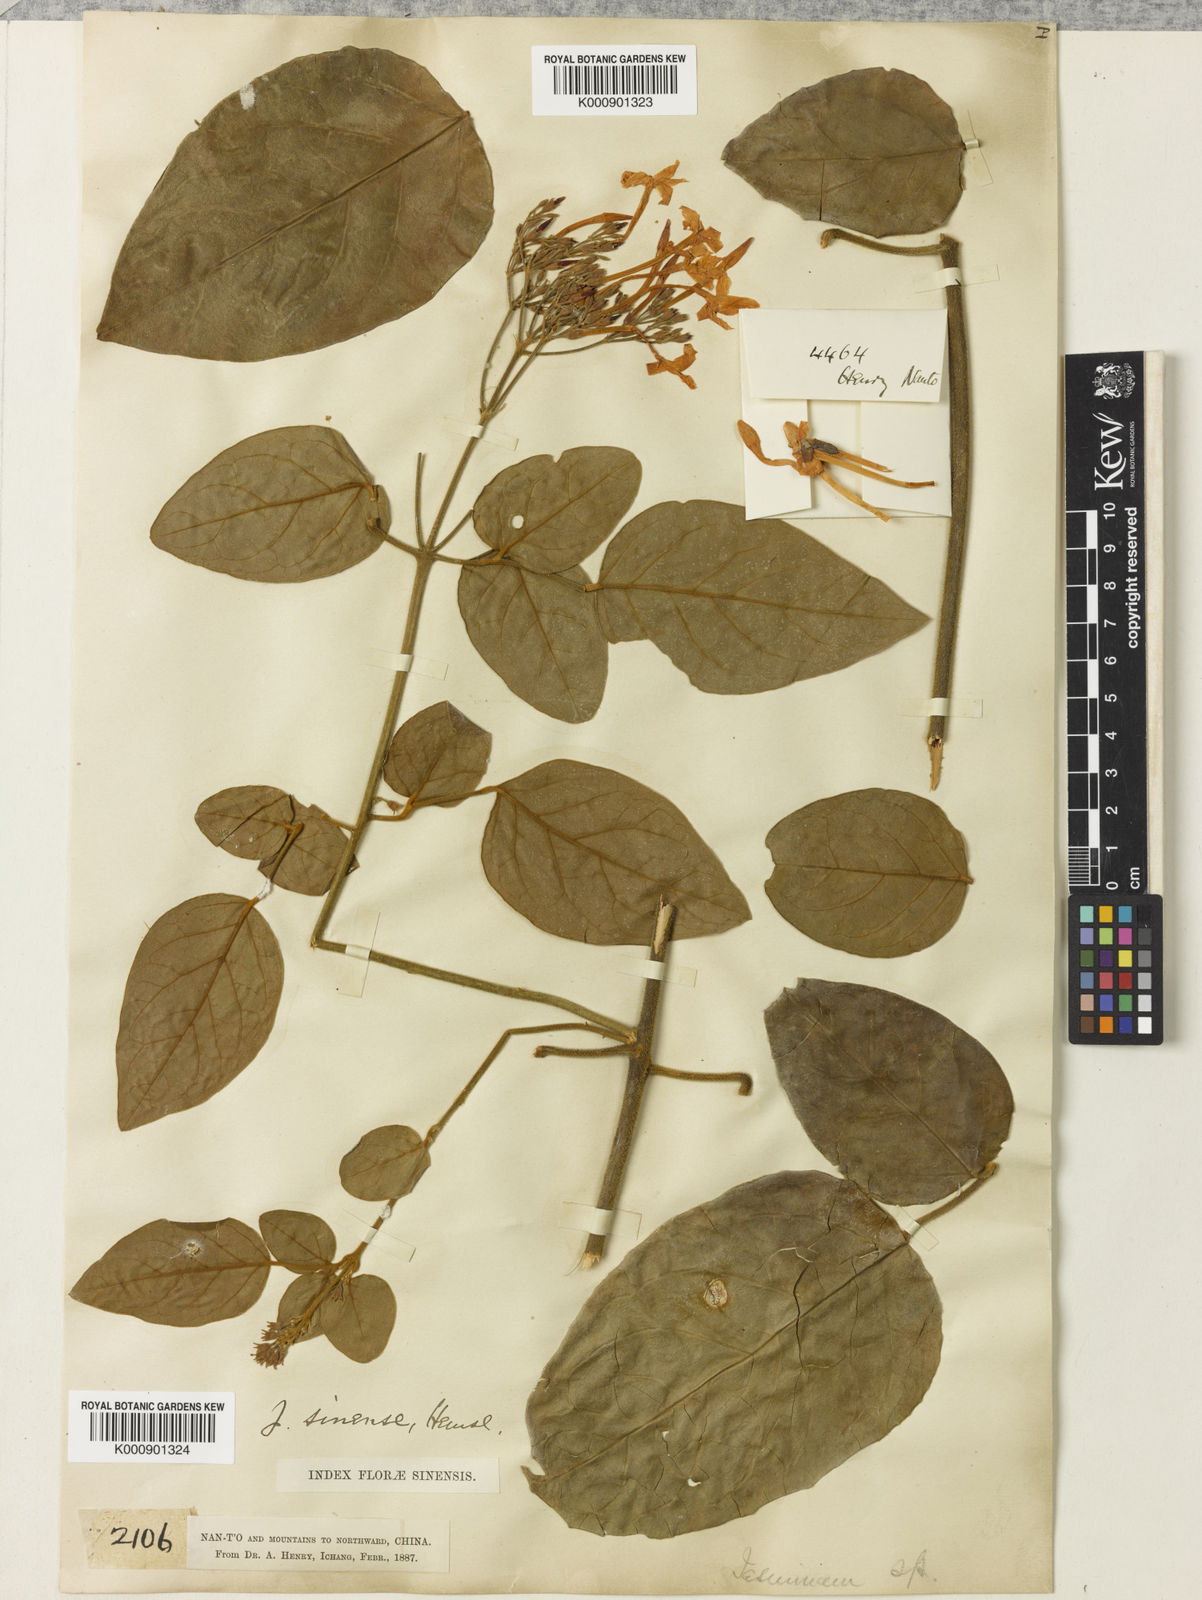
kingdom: Plantae
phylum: Tracheophyta
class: Magnoliopsida
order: Lamiales
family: Oleaceae
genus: Jasminum
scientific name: Jasminum sinense
